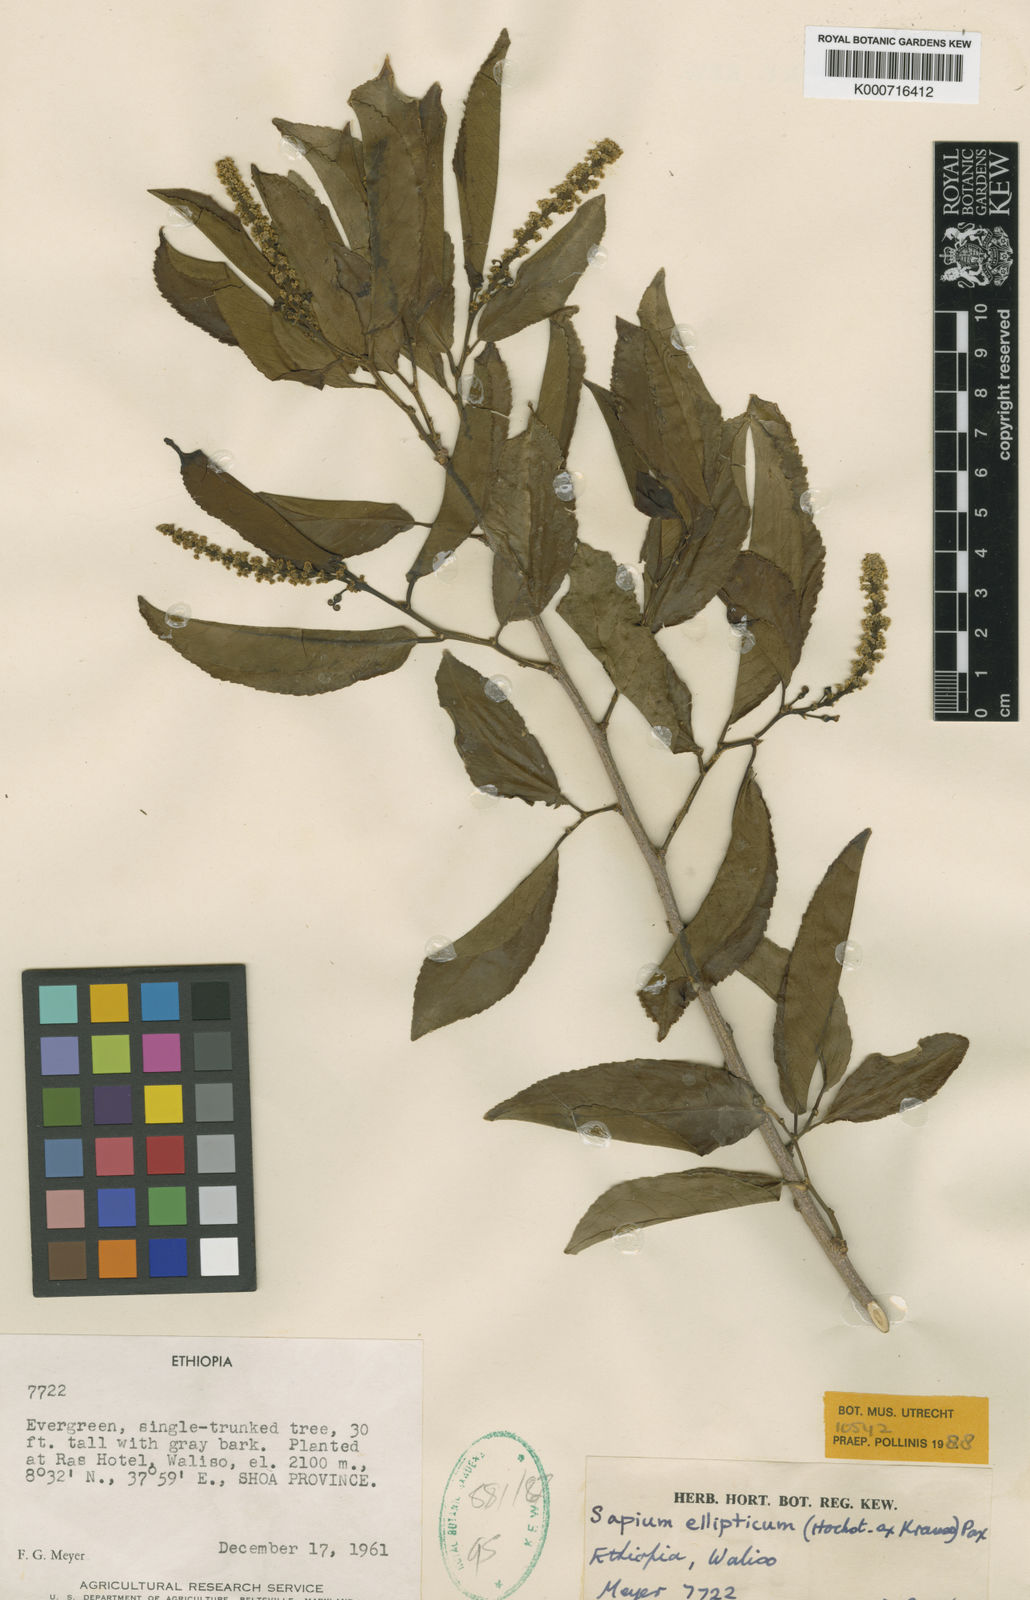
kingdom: Plantae
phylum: Tracheophyta
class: Magnoliopsida
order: Malpighiales
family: Euphorbiaceae
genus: Shirakiopsis
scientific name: Shirakiopsis elliptica
